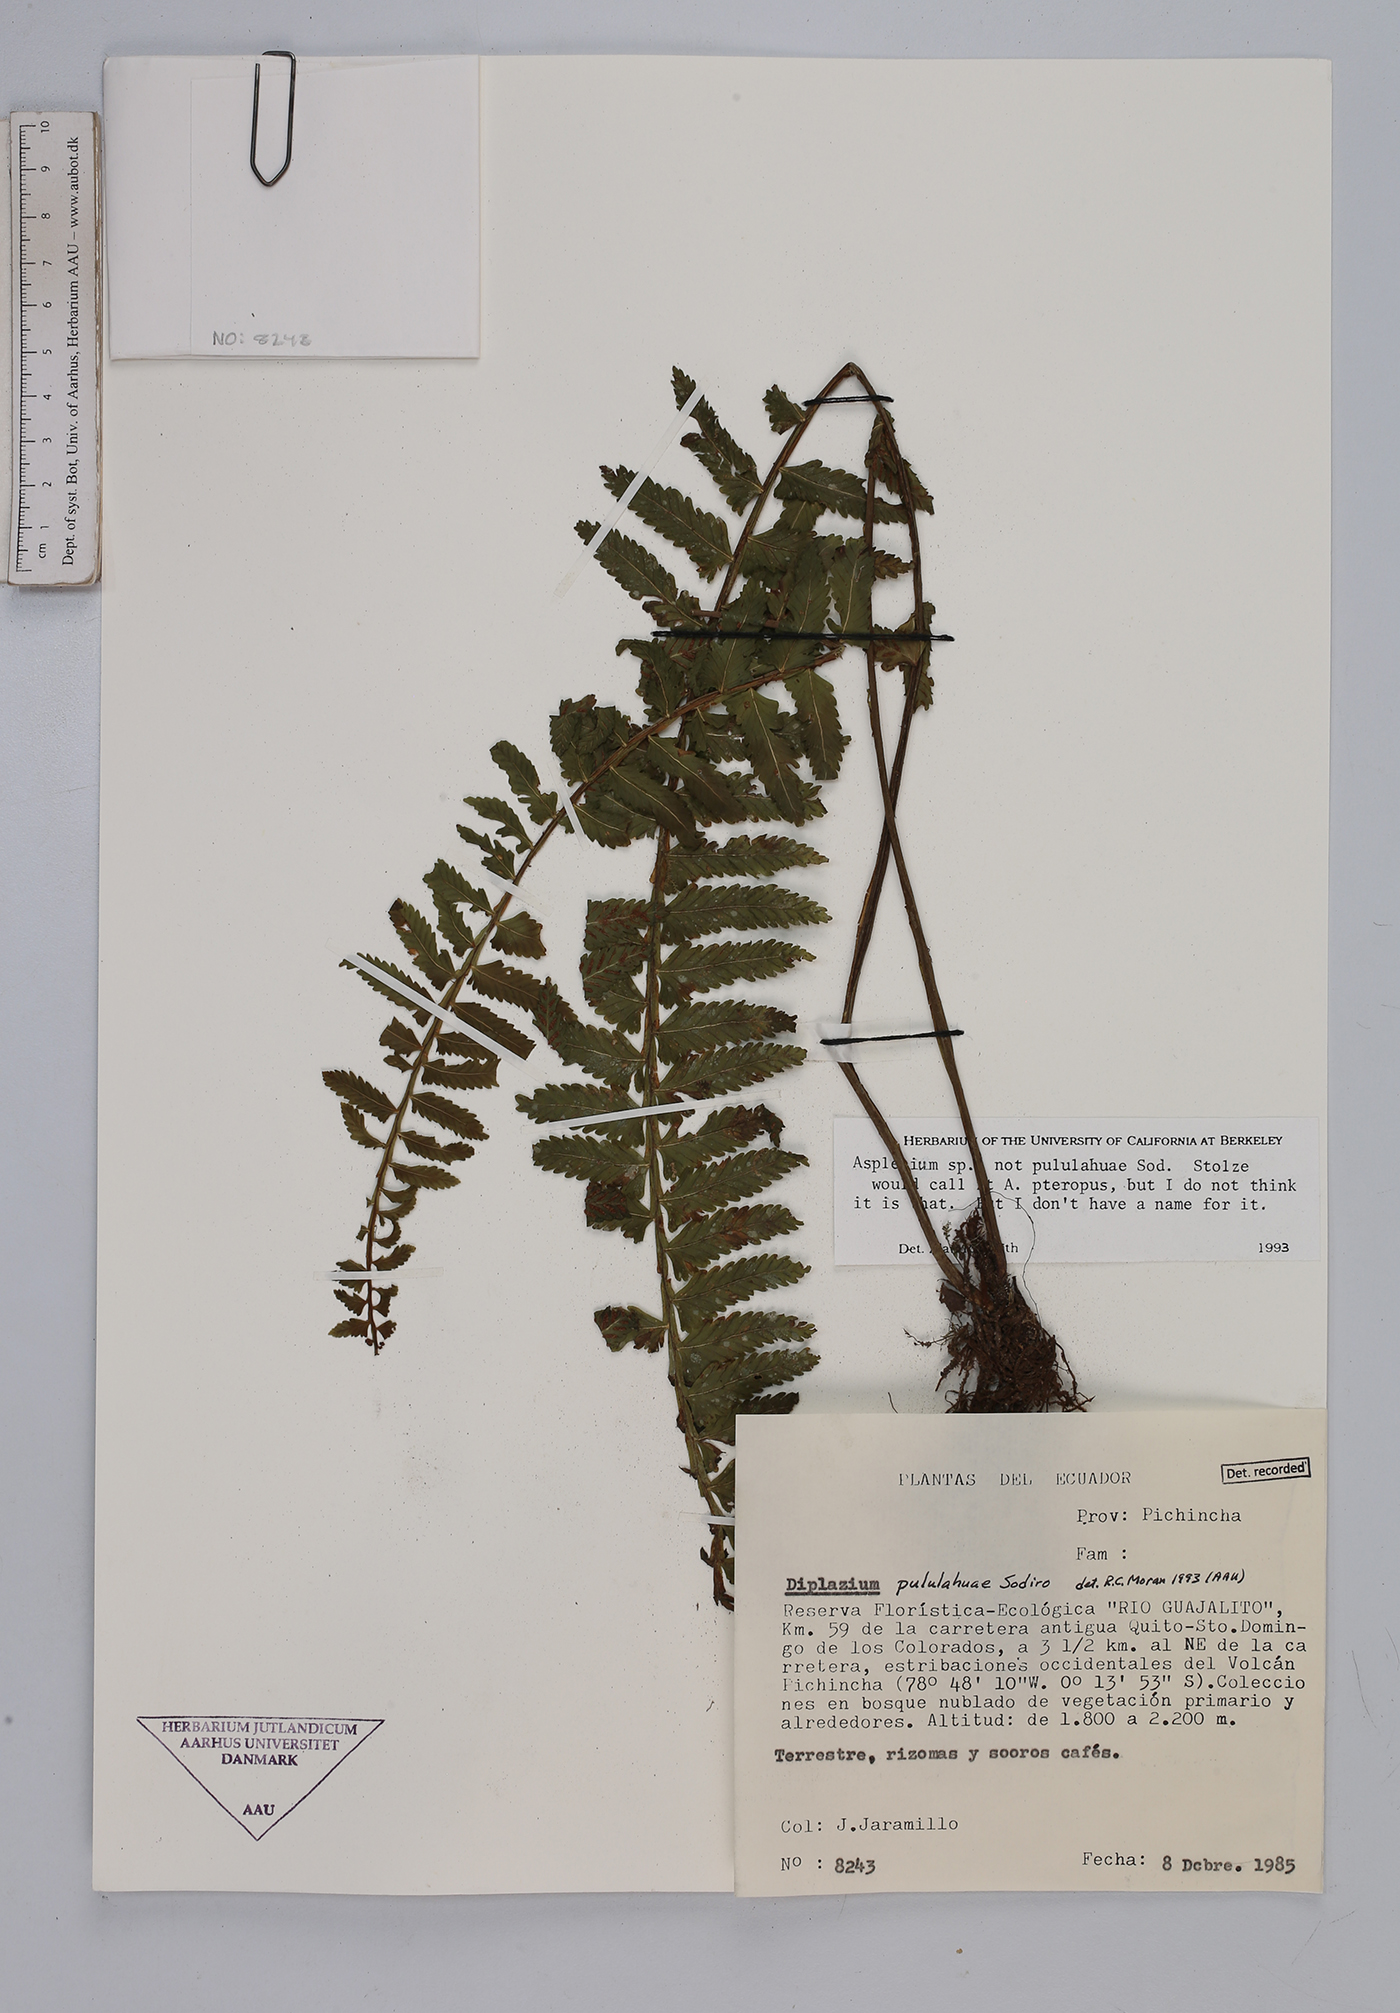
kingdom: Plantae
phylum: Tracheophyta
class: Polypodiopsida
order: Polypodiales
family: Aspleniaceae
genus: Asplenium
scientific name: Asplenium
